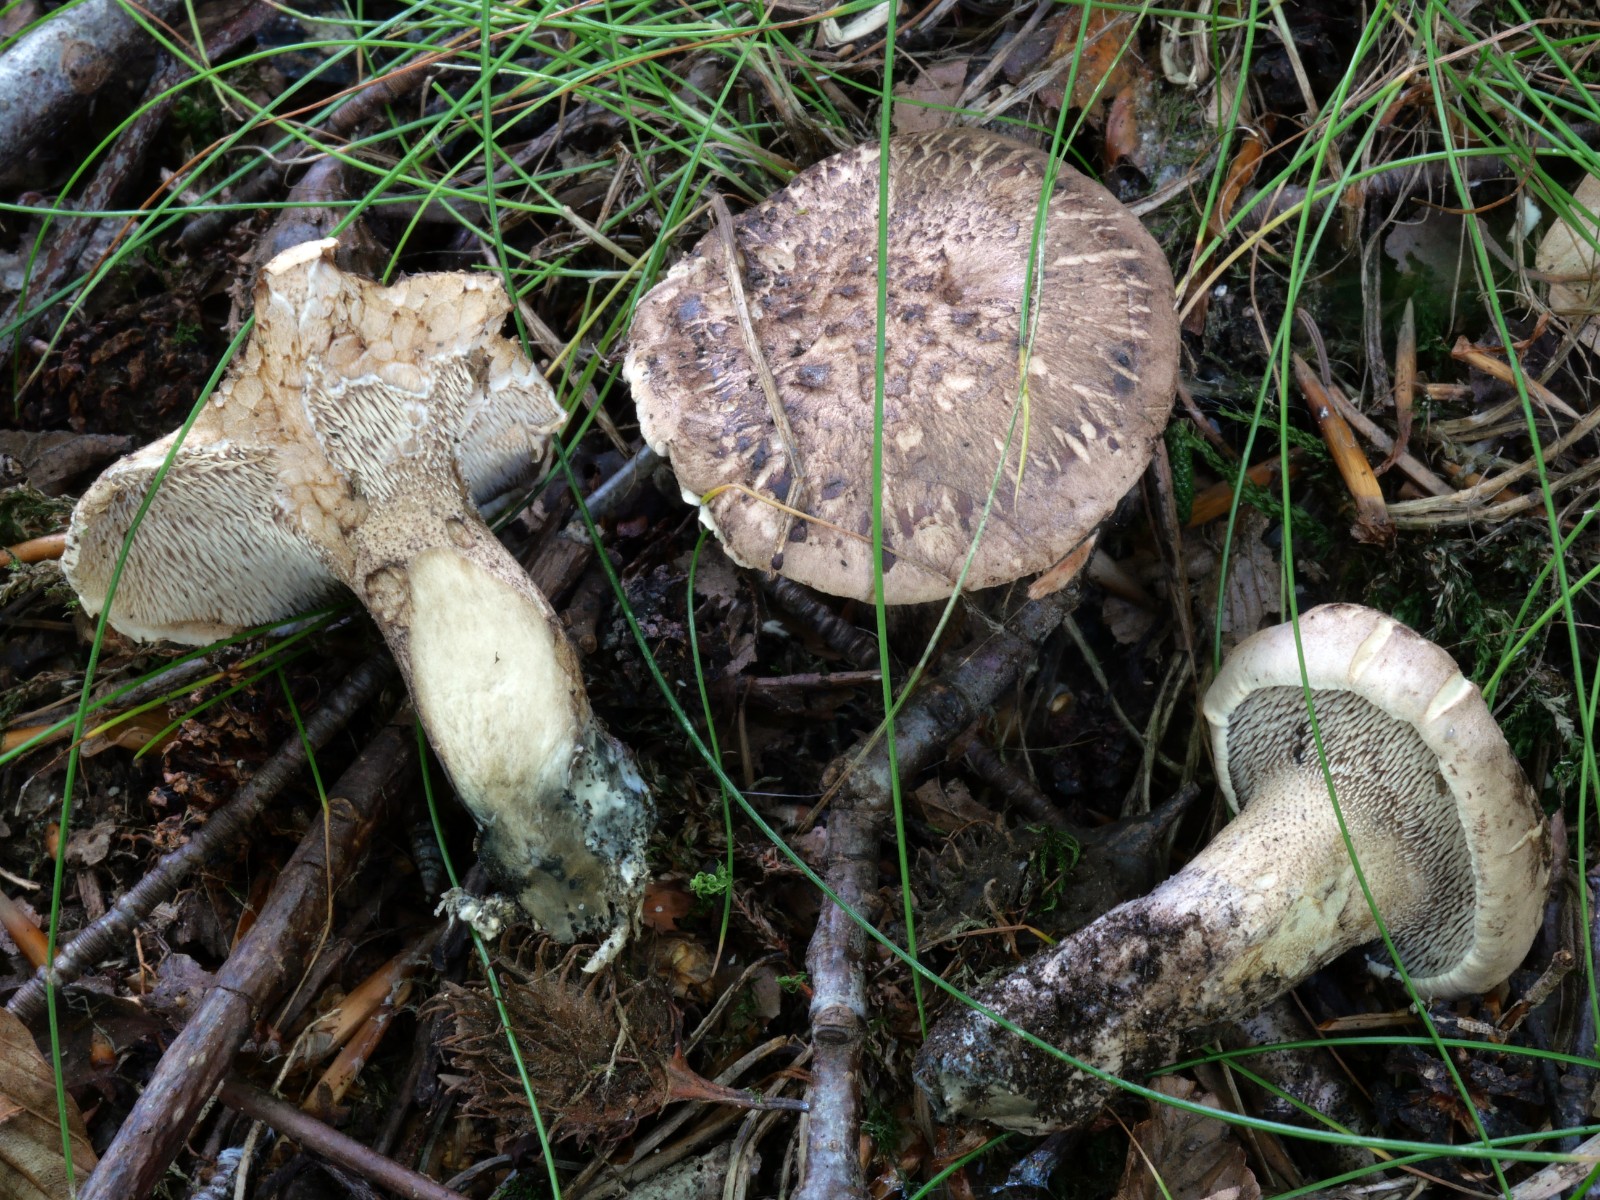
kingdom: Fungi
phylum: Basidiomycota
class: Agaricomycetes
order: Thelephorales
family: Bankeraceae
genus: Hydnellum
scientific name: Hydnellum fagiscabrosum
